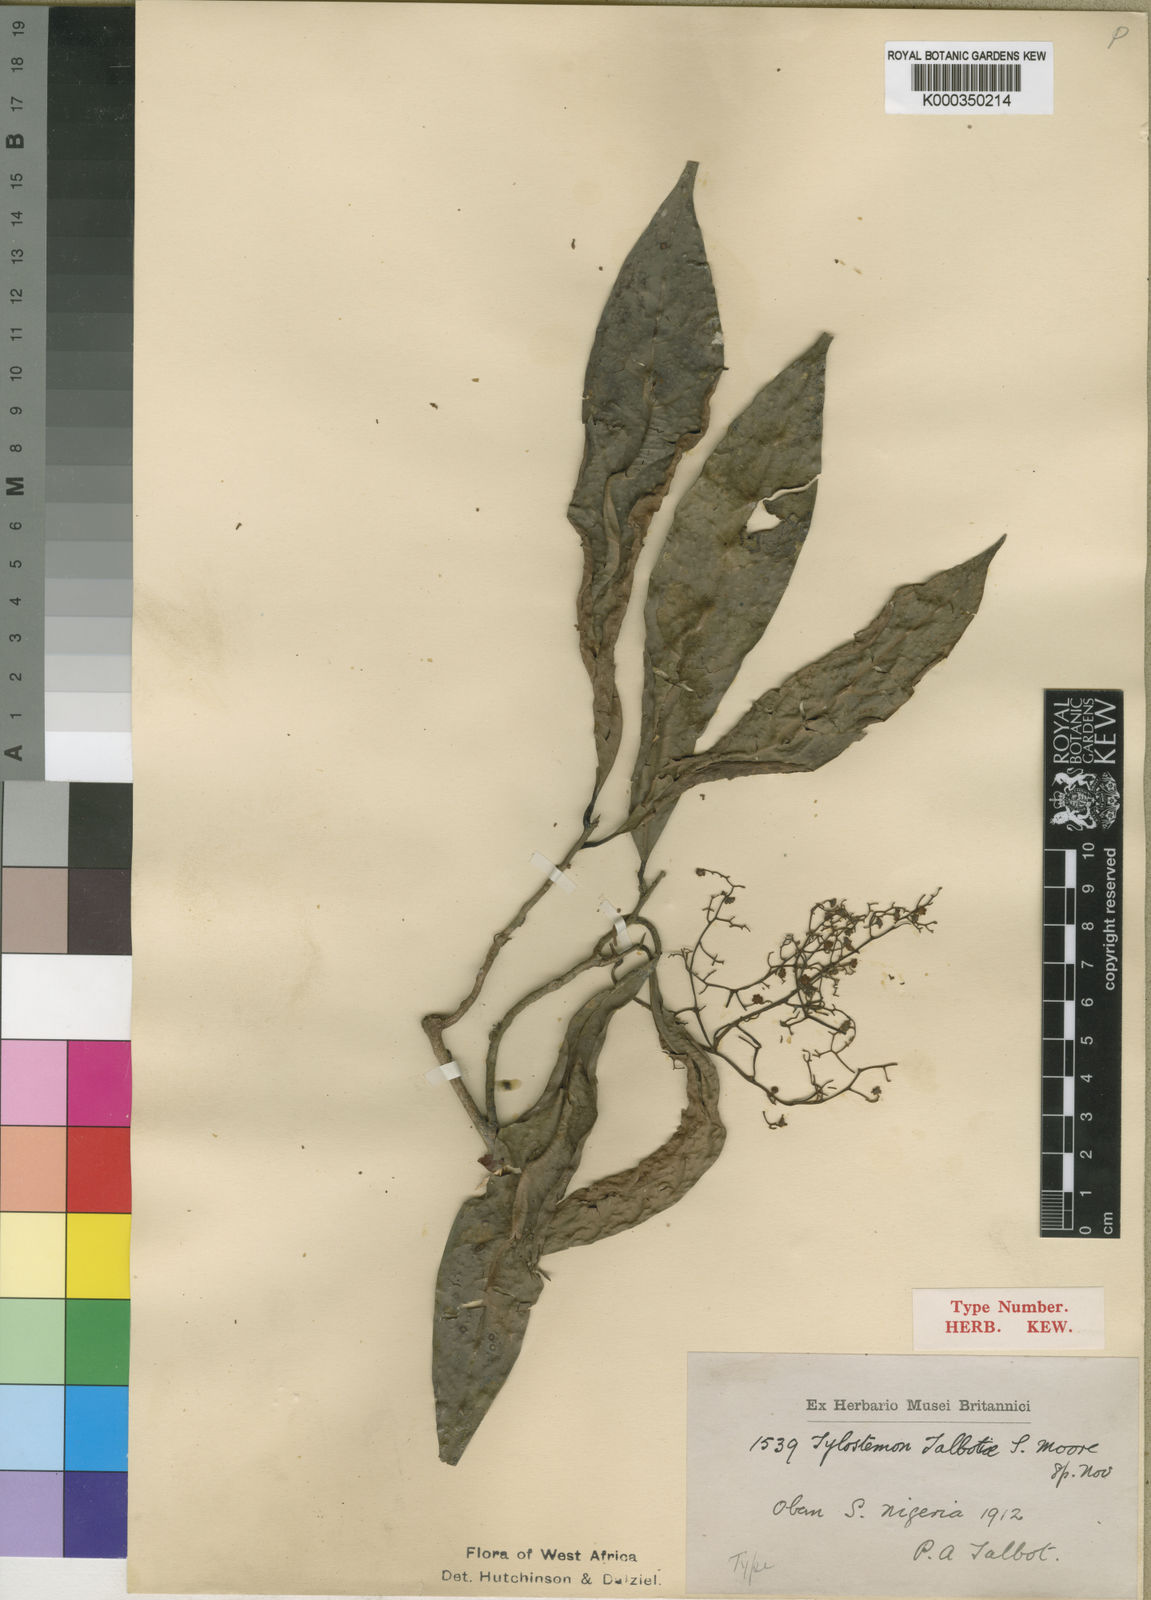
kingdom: Plantae
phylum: Tracheophyta
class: Magnoliopsida
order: Laurales
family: Lauraceae
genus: Beilschmiedia
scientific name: Beilschmiedia talbotiae
